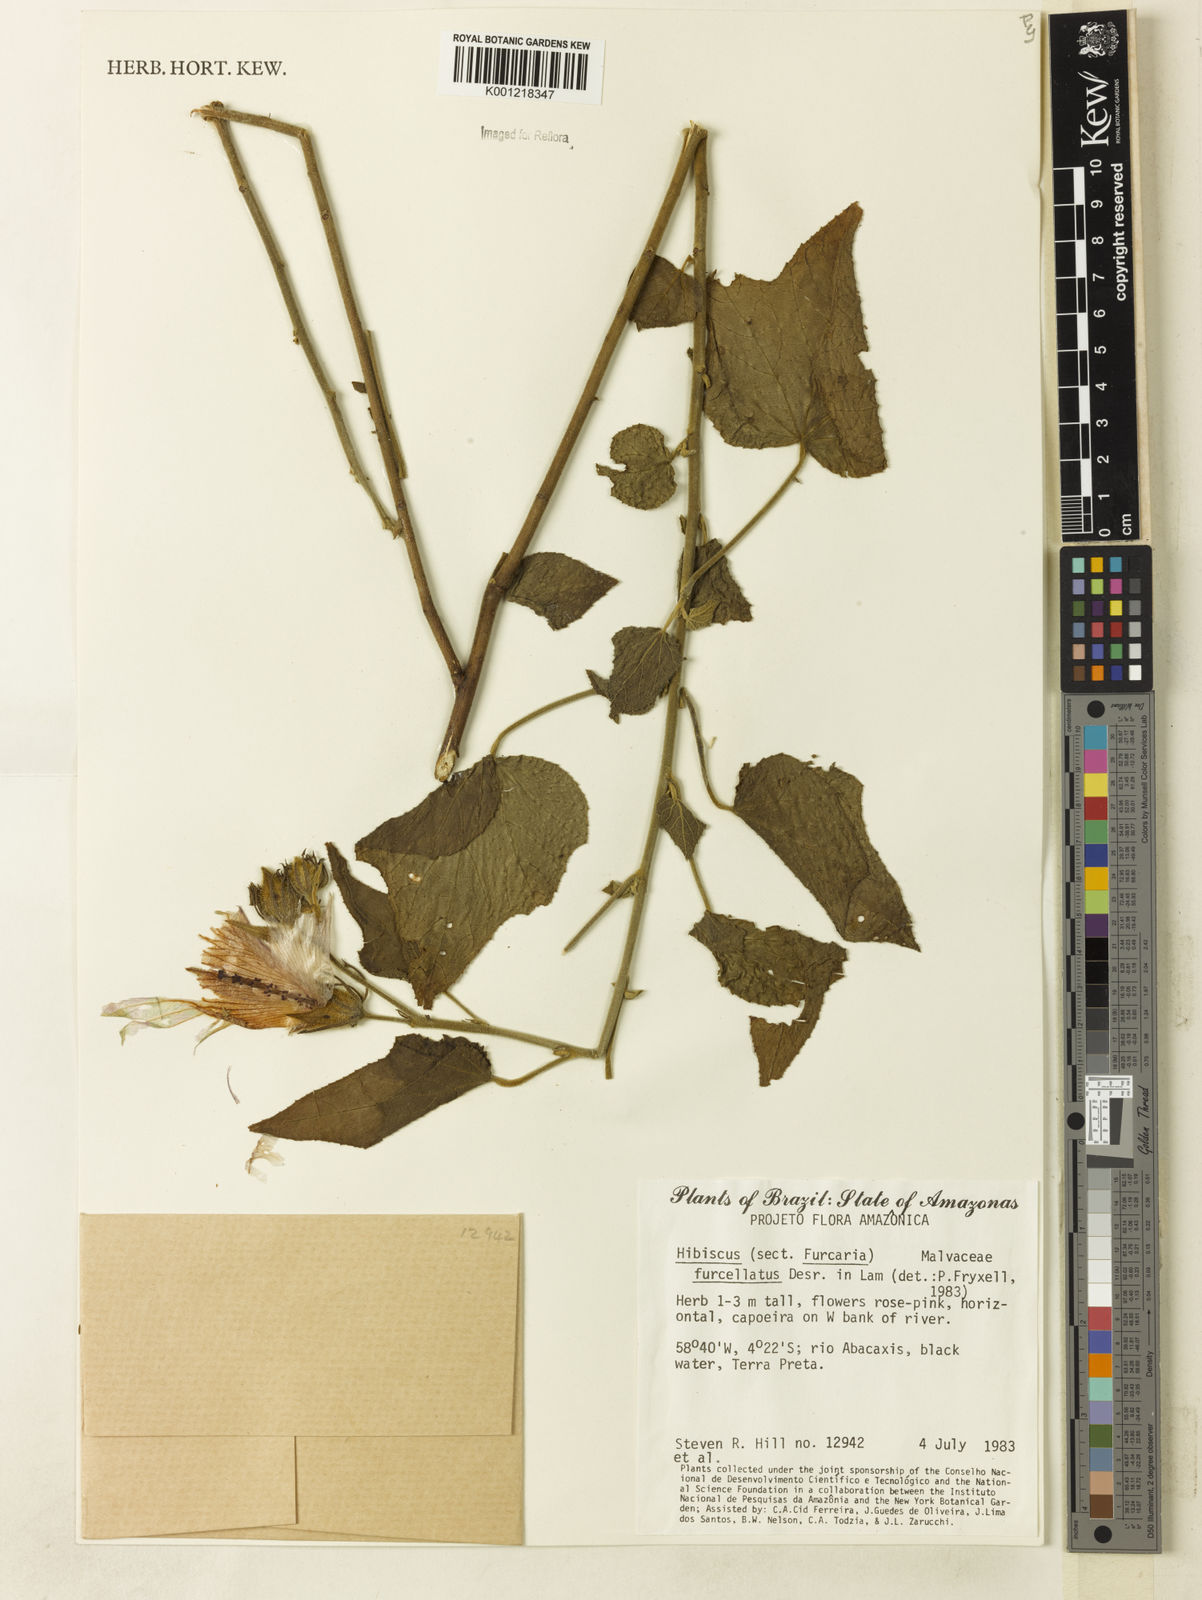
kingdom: Plantae
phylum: Tracheophyta
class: Magnoliopsida
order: Malvales
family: Malvaceae
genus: Hibiscus
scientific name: Hibiscus furcellatus
